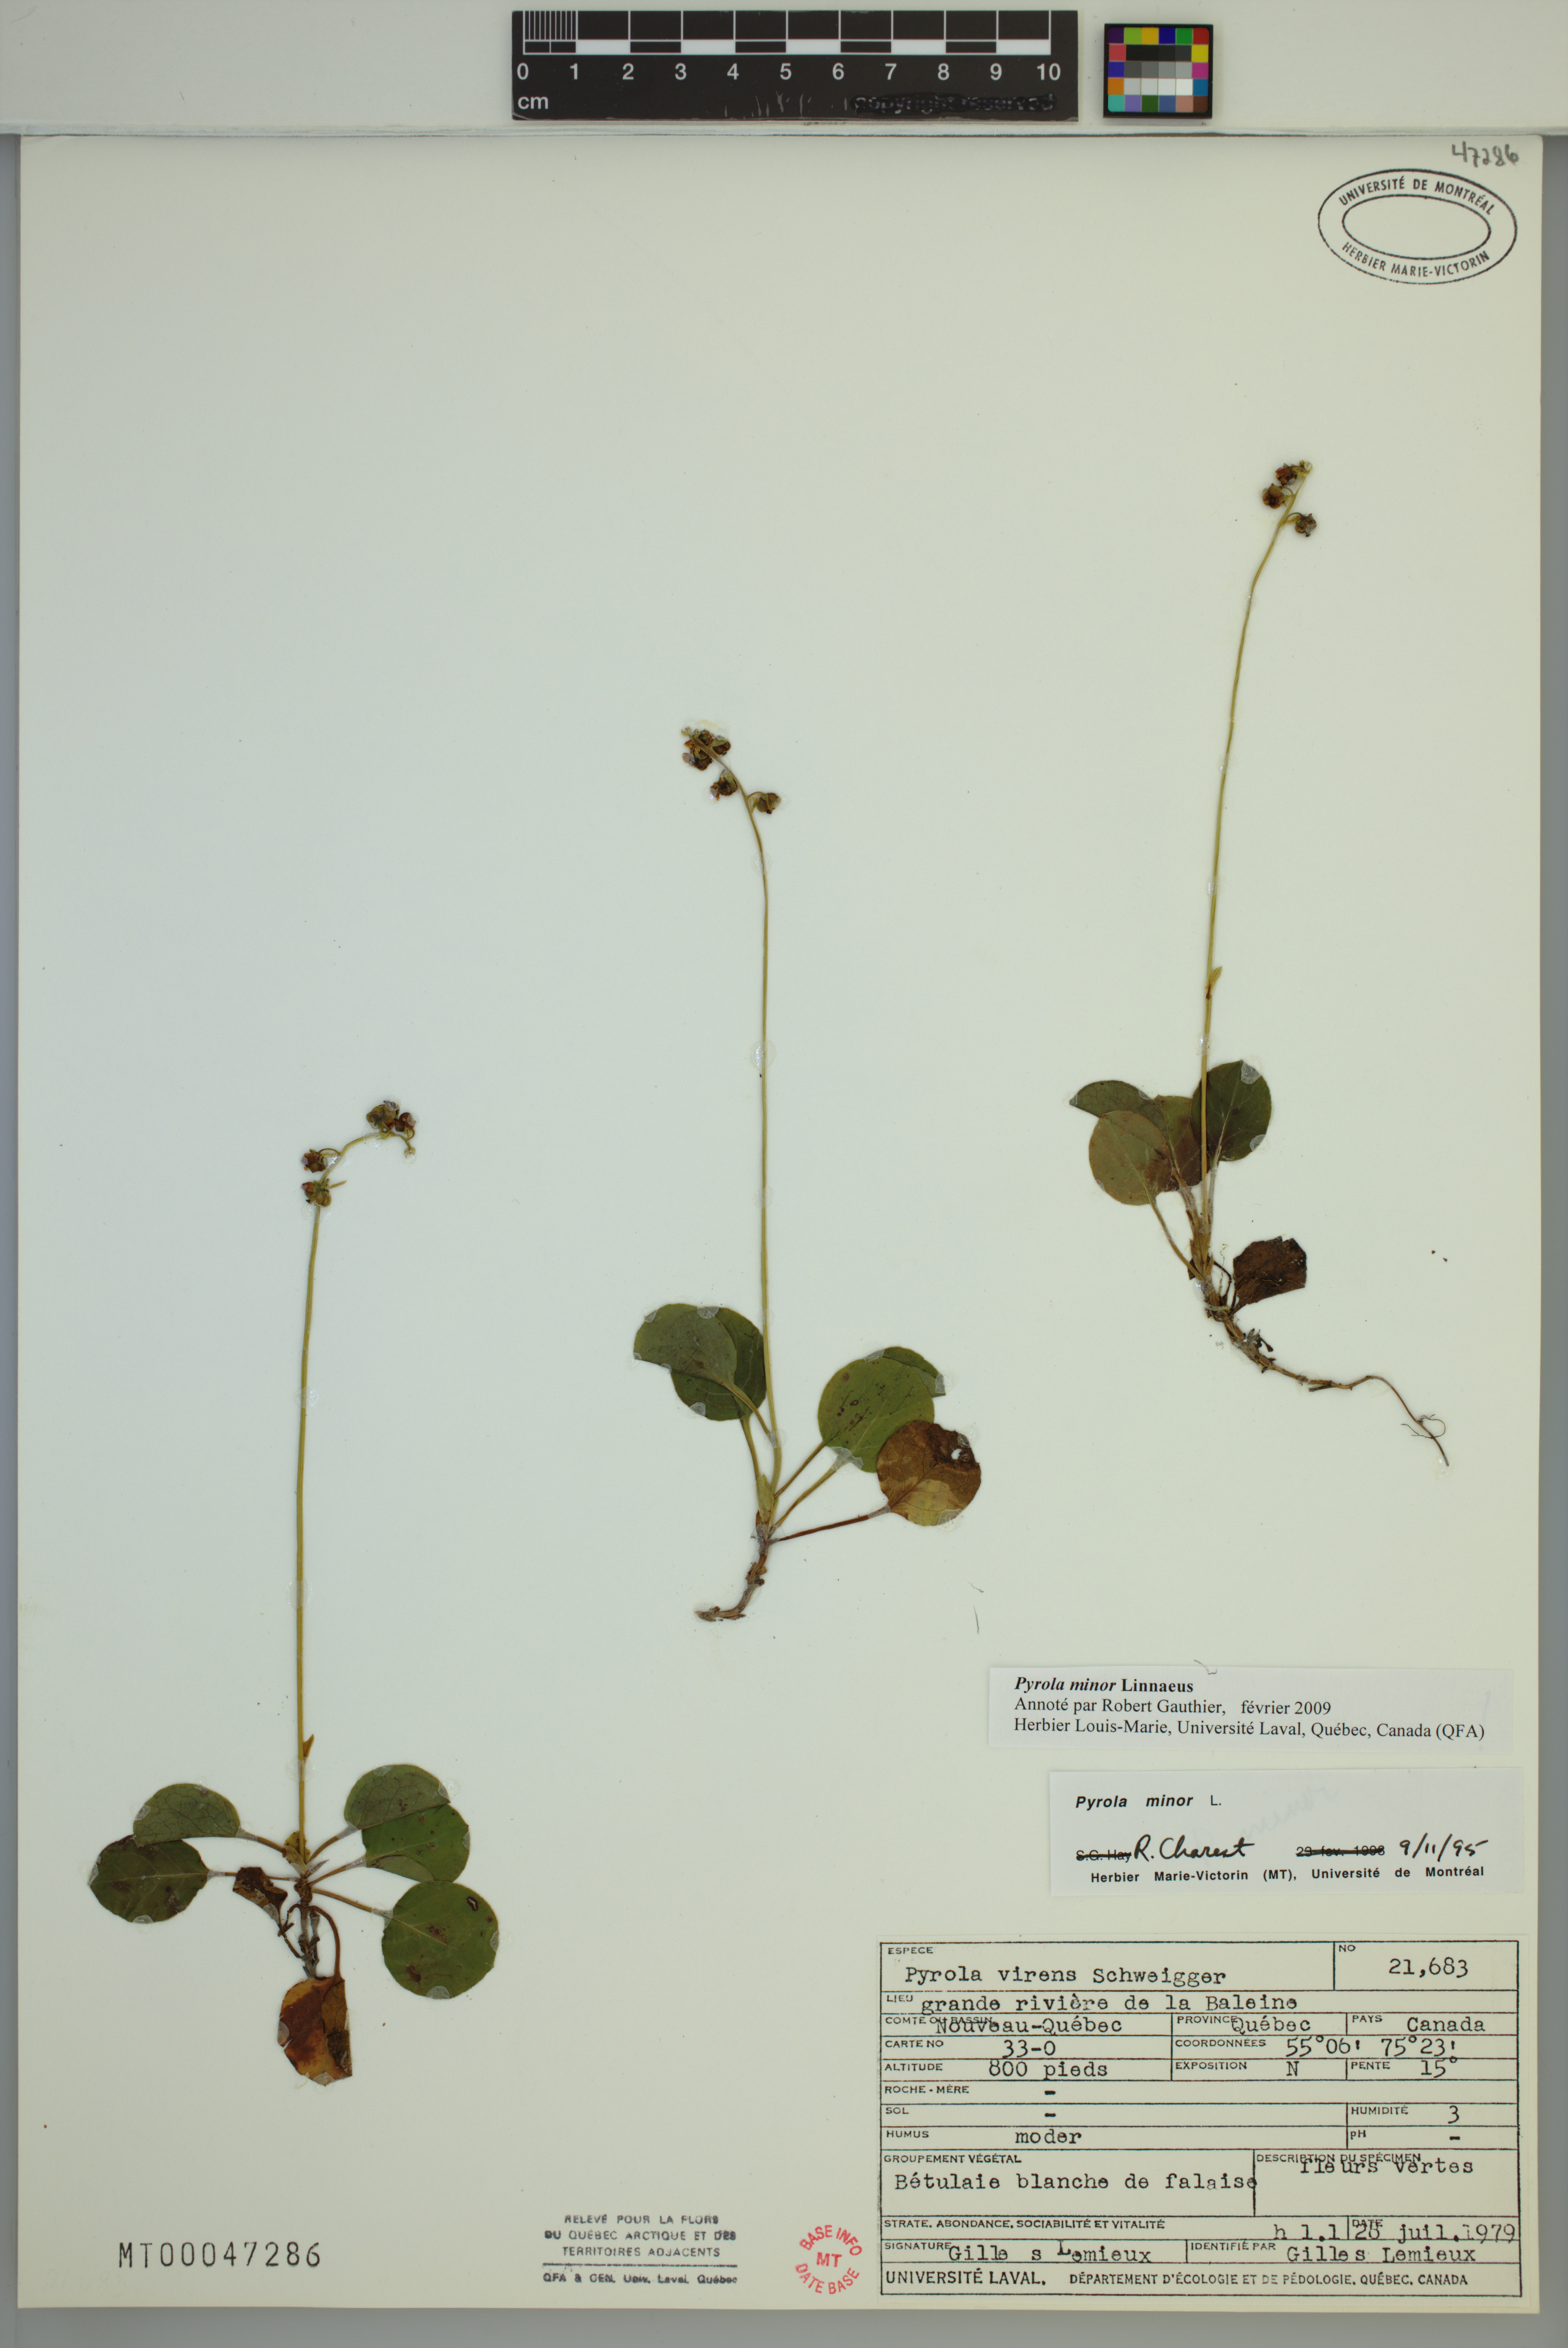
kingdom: Plantae
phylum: Tracheophyta
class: Magnoliopsida
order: Ericales
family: Ericaceae
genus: Pyrola
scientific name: Pyrola minor
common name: Common wintergreen
